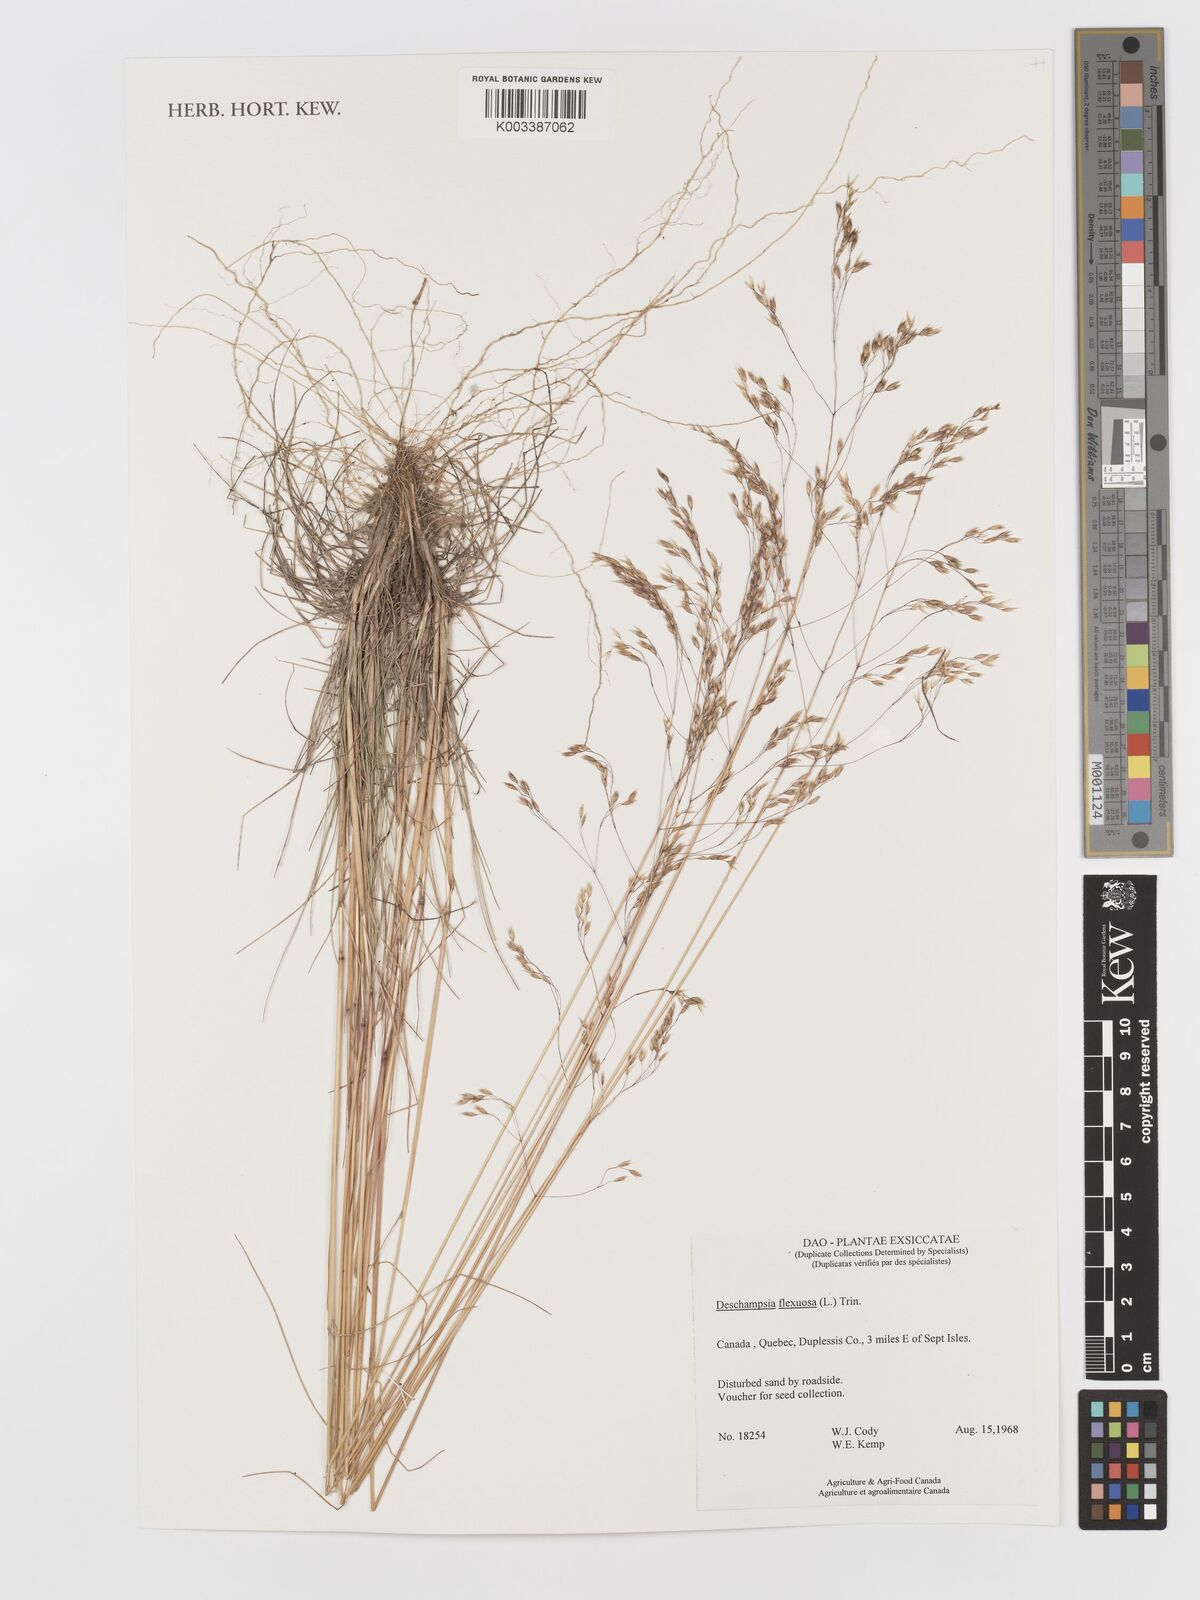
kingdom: Plantae
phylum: Tracheophyta
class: Liliopsida
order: Poales
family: Poaceae
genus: Avenella
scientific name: Avenella flexuosa
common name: Wavy hairgrass
